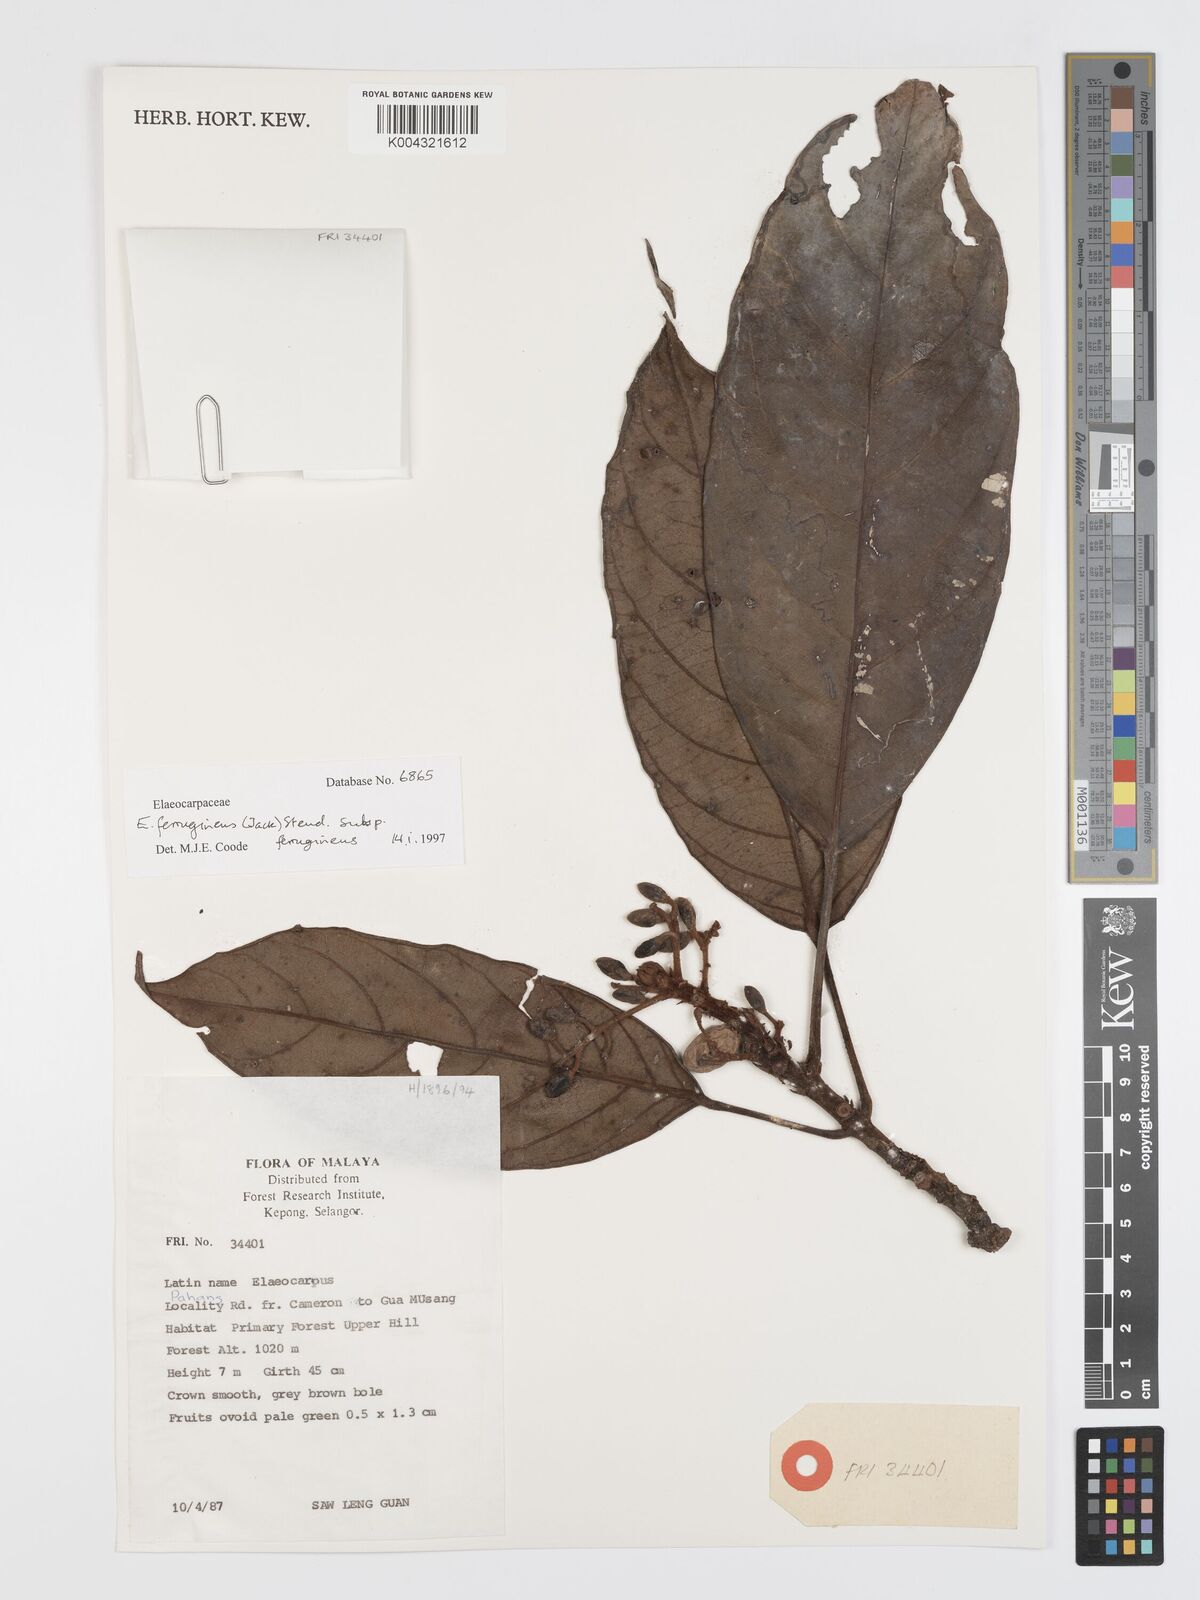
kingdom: Plantae
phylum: Tracheophyta
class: Magnoliopsida
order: Oxalidales
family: Elaeocarpaceae
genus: Elaeocarpus
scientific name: Elaeocarpus ferrugineus
